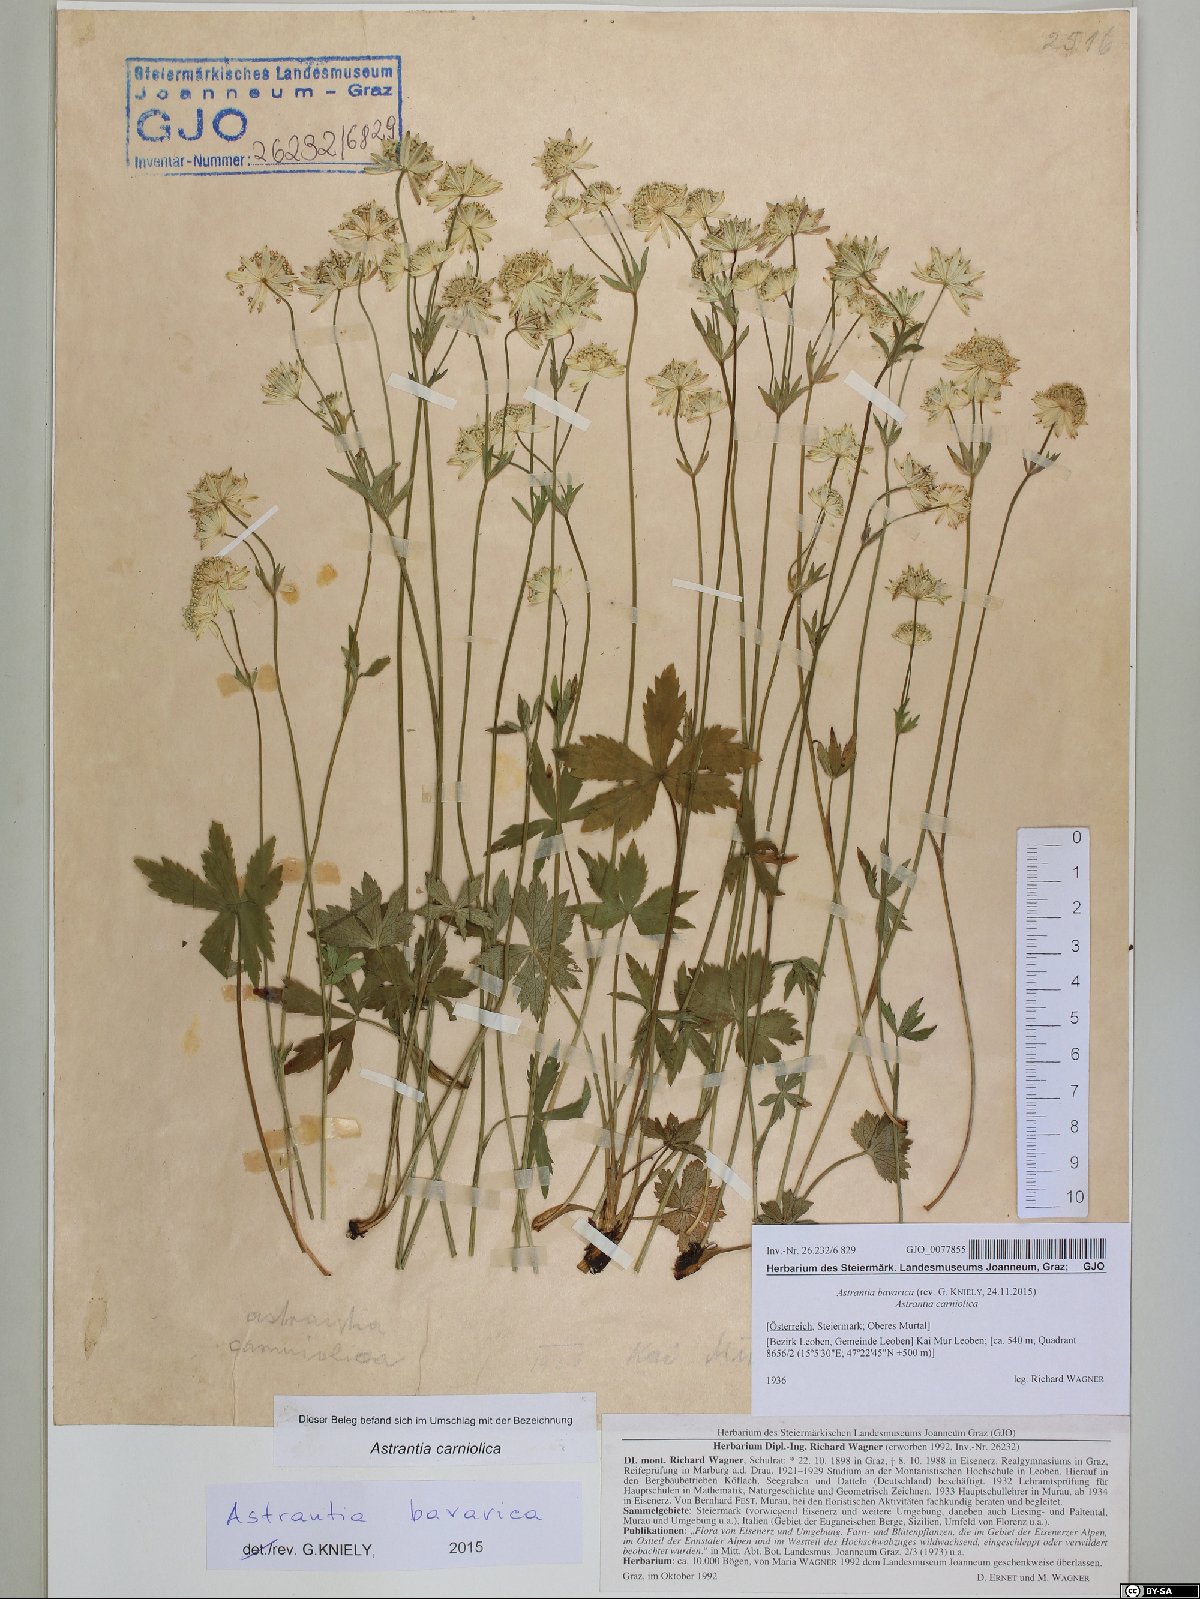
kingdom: Plantae
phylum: Tracheophyta
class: Magnoliopsida
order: Apiales
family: Apiaceae
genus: Astrantia
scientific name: Astrantia bavarica
